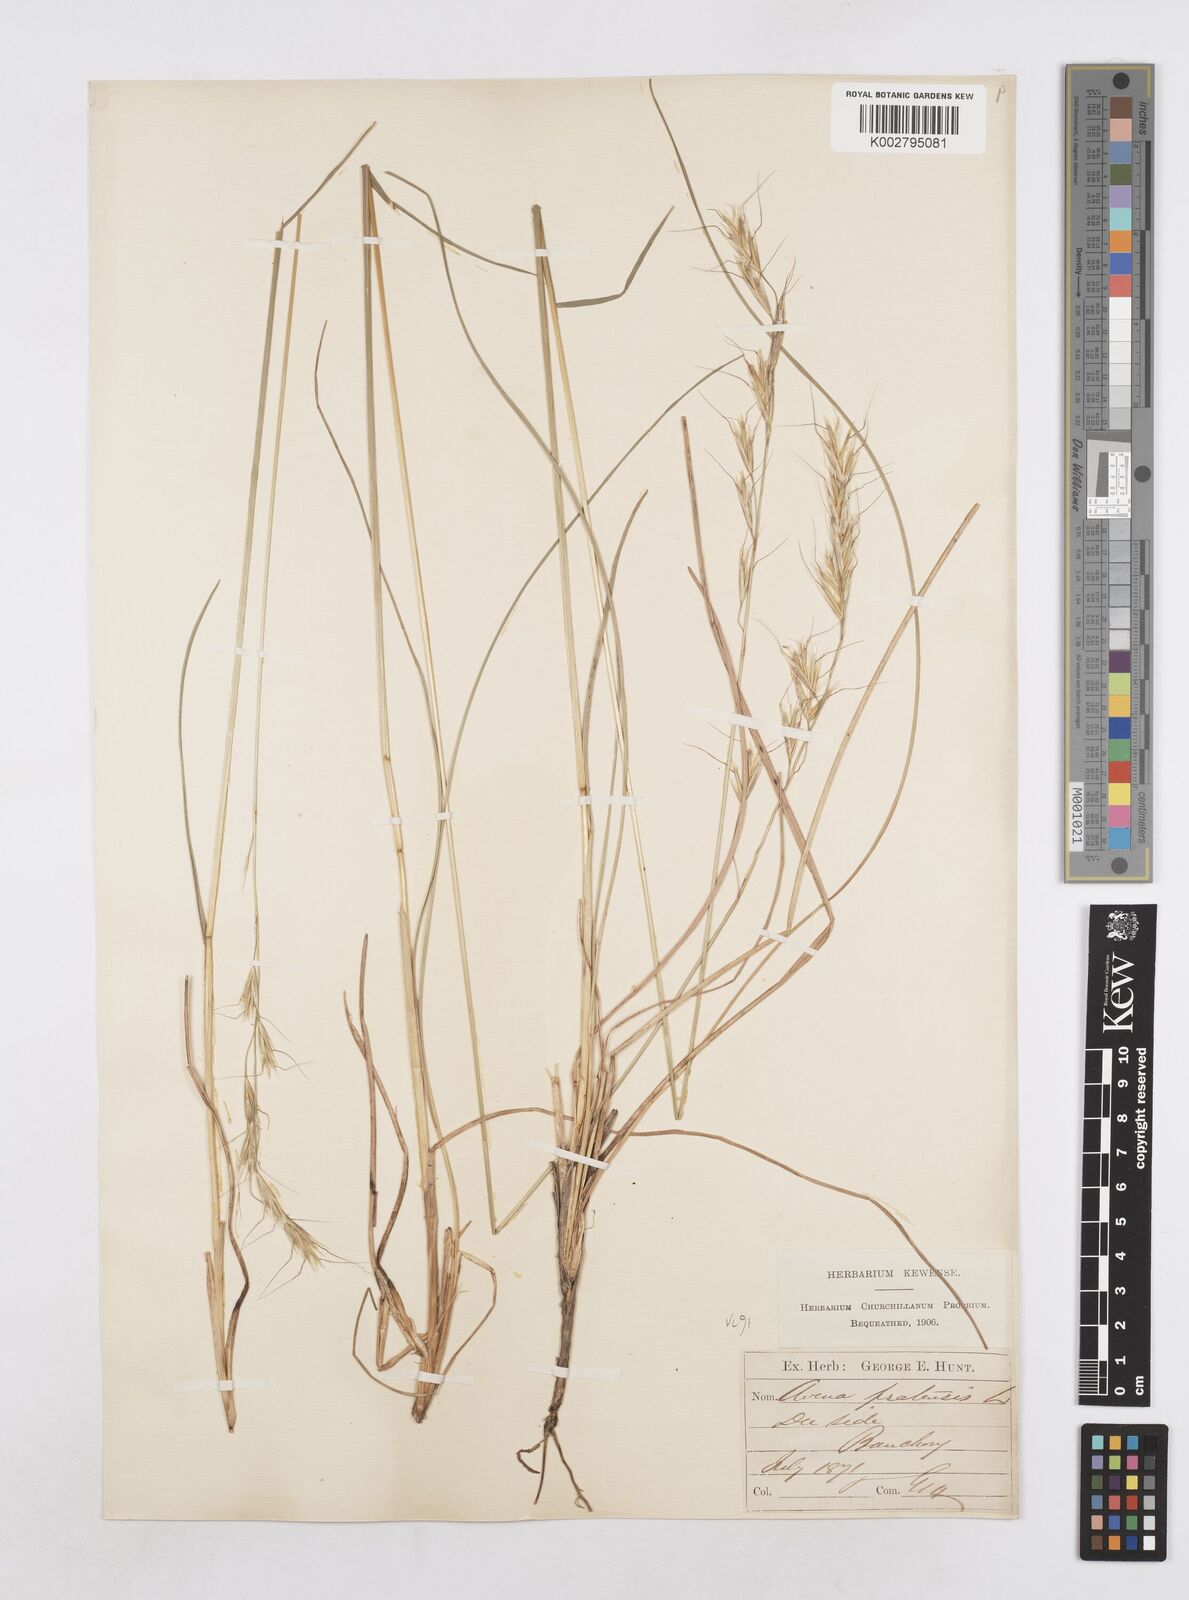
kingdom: Plantae
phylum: Tracheophyta
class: Liliopsida
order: Poales
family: Poaceae
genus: Helictochloa
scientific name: Helictochloa pratensis
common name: Meadow oat grass
